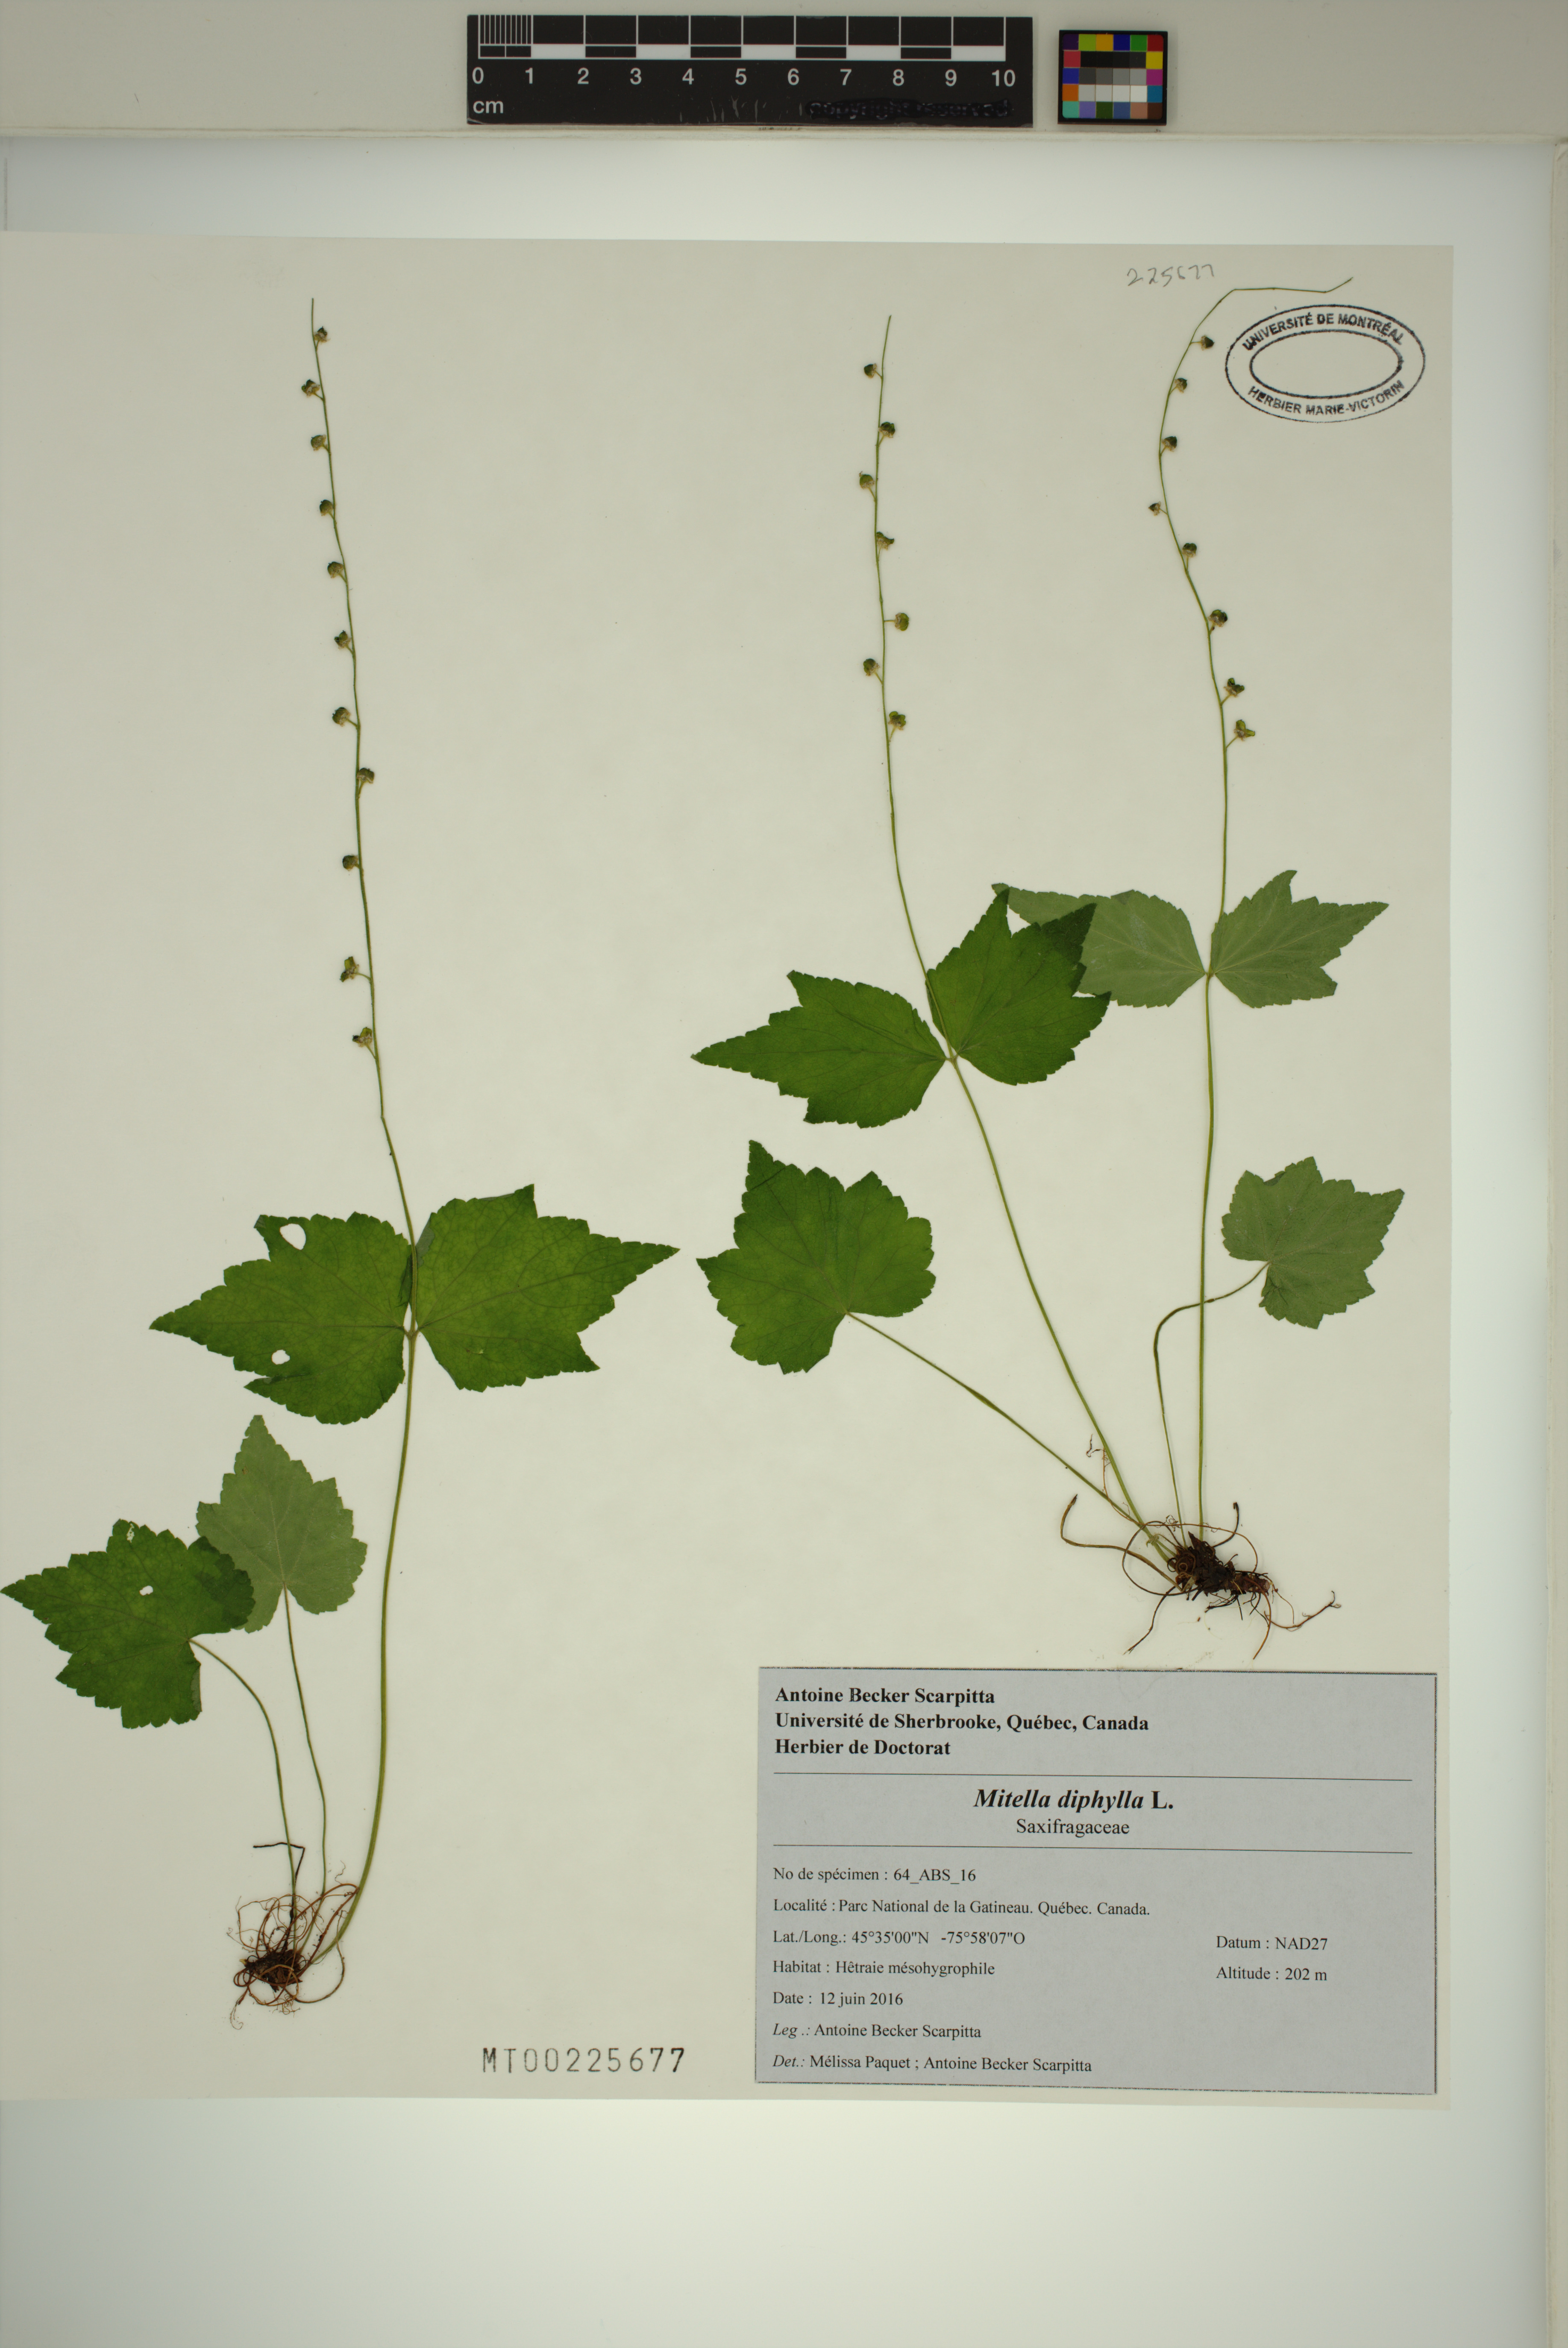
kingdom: Plantae
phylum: Tracheophyta
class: Magnoliopsida
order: Saxifragales
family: Saxifragaceae
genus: Mitella
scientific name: Mitella diphylla
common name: Coolwort
